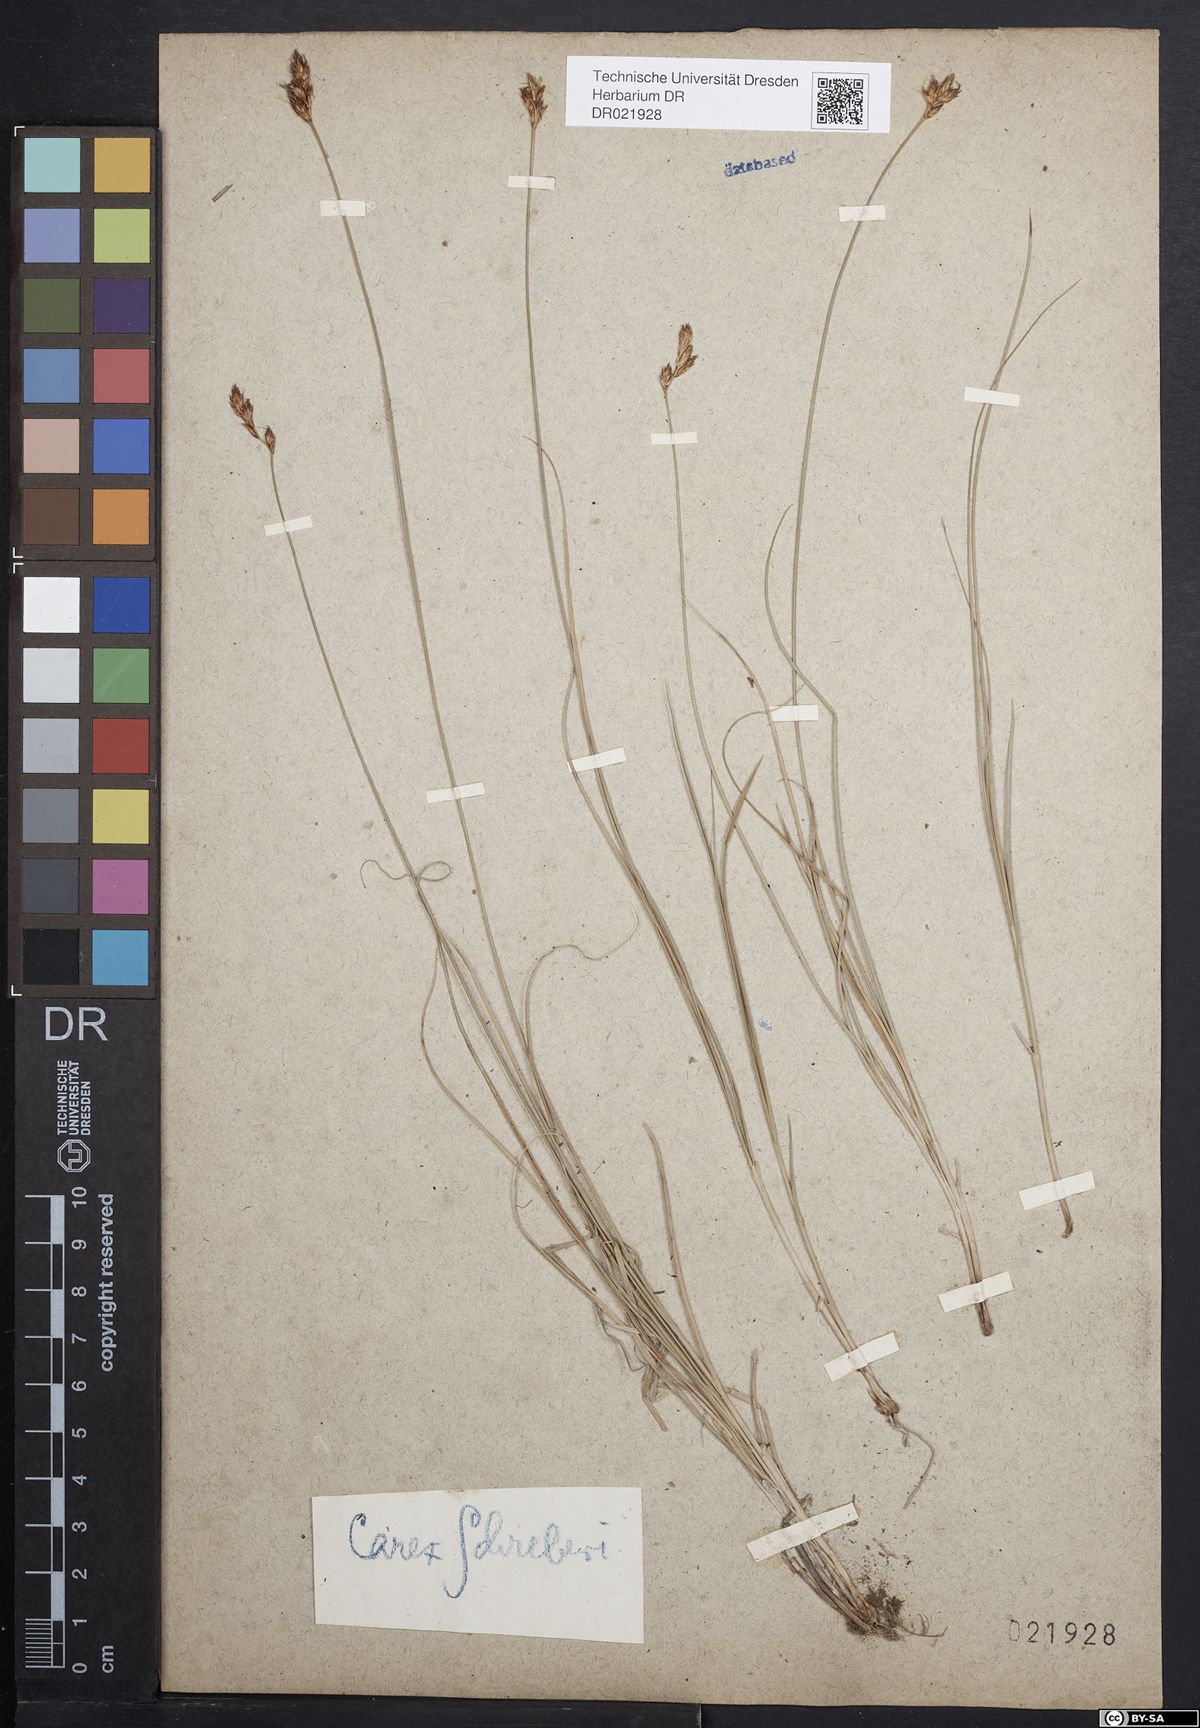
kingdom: Plantae
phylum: Tracheophyta
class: Liliopsida
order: Poales
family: Cyperaceae
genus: Carex
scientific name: Carex praecox
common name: Early sedge
